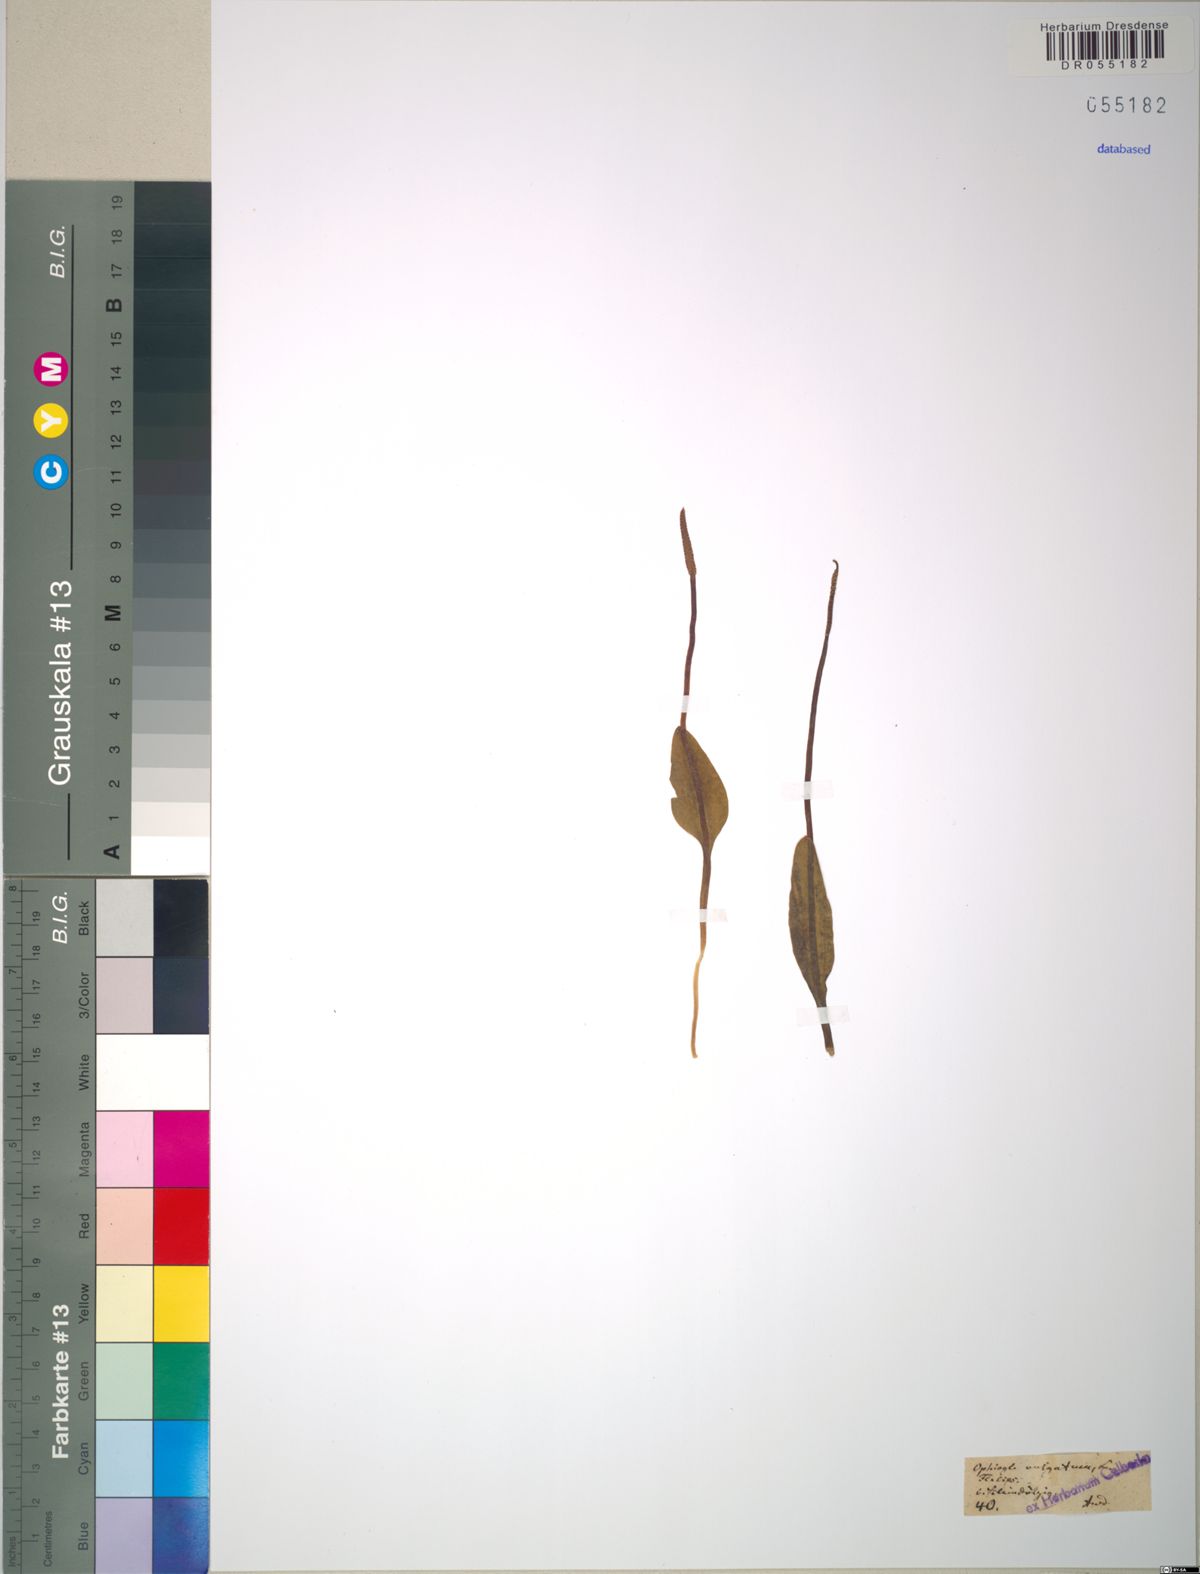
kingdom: Plantae
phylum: Tracheophyta
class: Polypodiopsida
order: Ophioglossales
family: Ophioglossaceae
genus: Ophioglossum
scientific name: Ophioglossum vulgatum
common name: Adder's-tongue
